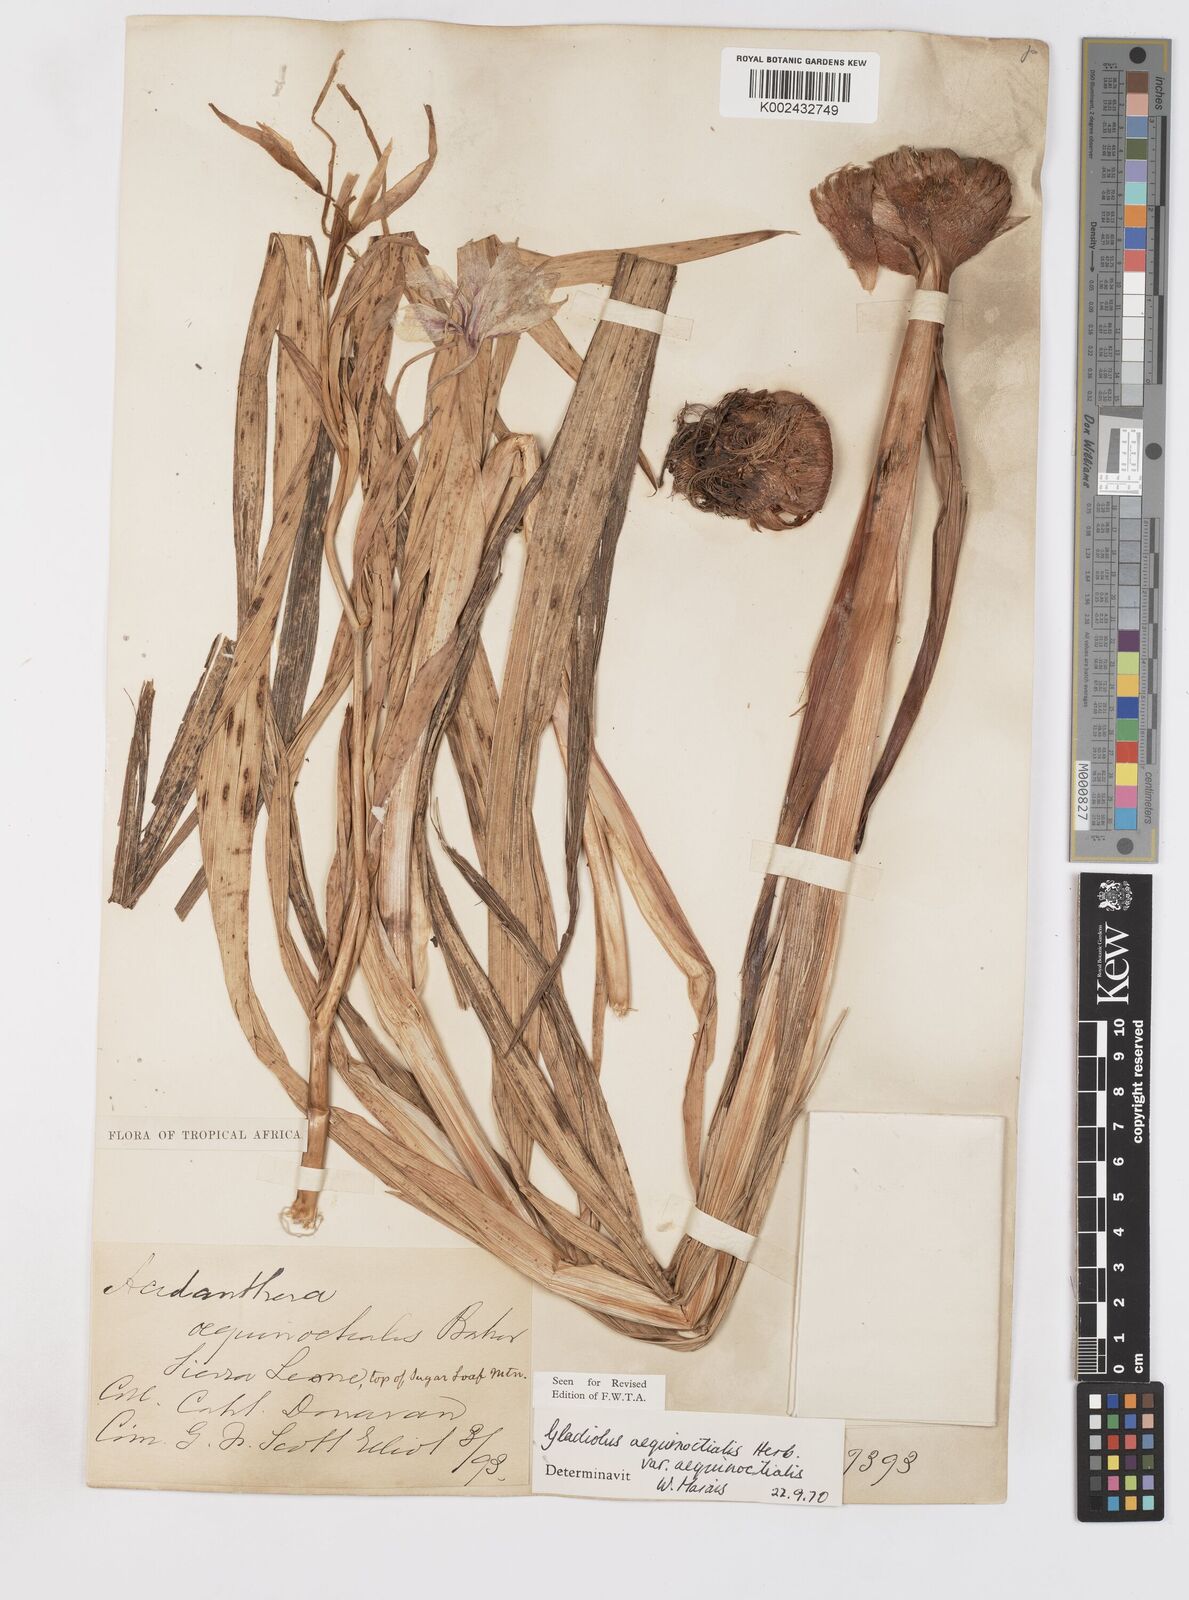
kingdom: Plantae
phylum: Tracheophyta
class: Liliopsida
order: Asparagales
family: Iridaceae
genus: Gladiolus
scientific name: Gladiolus aequinoctialis
